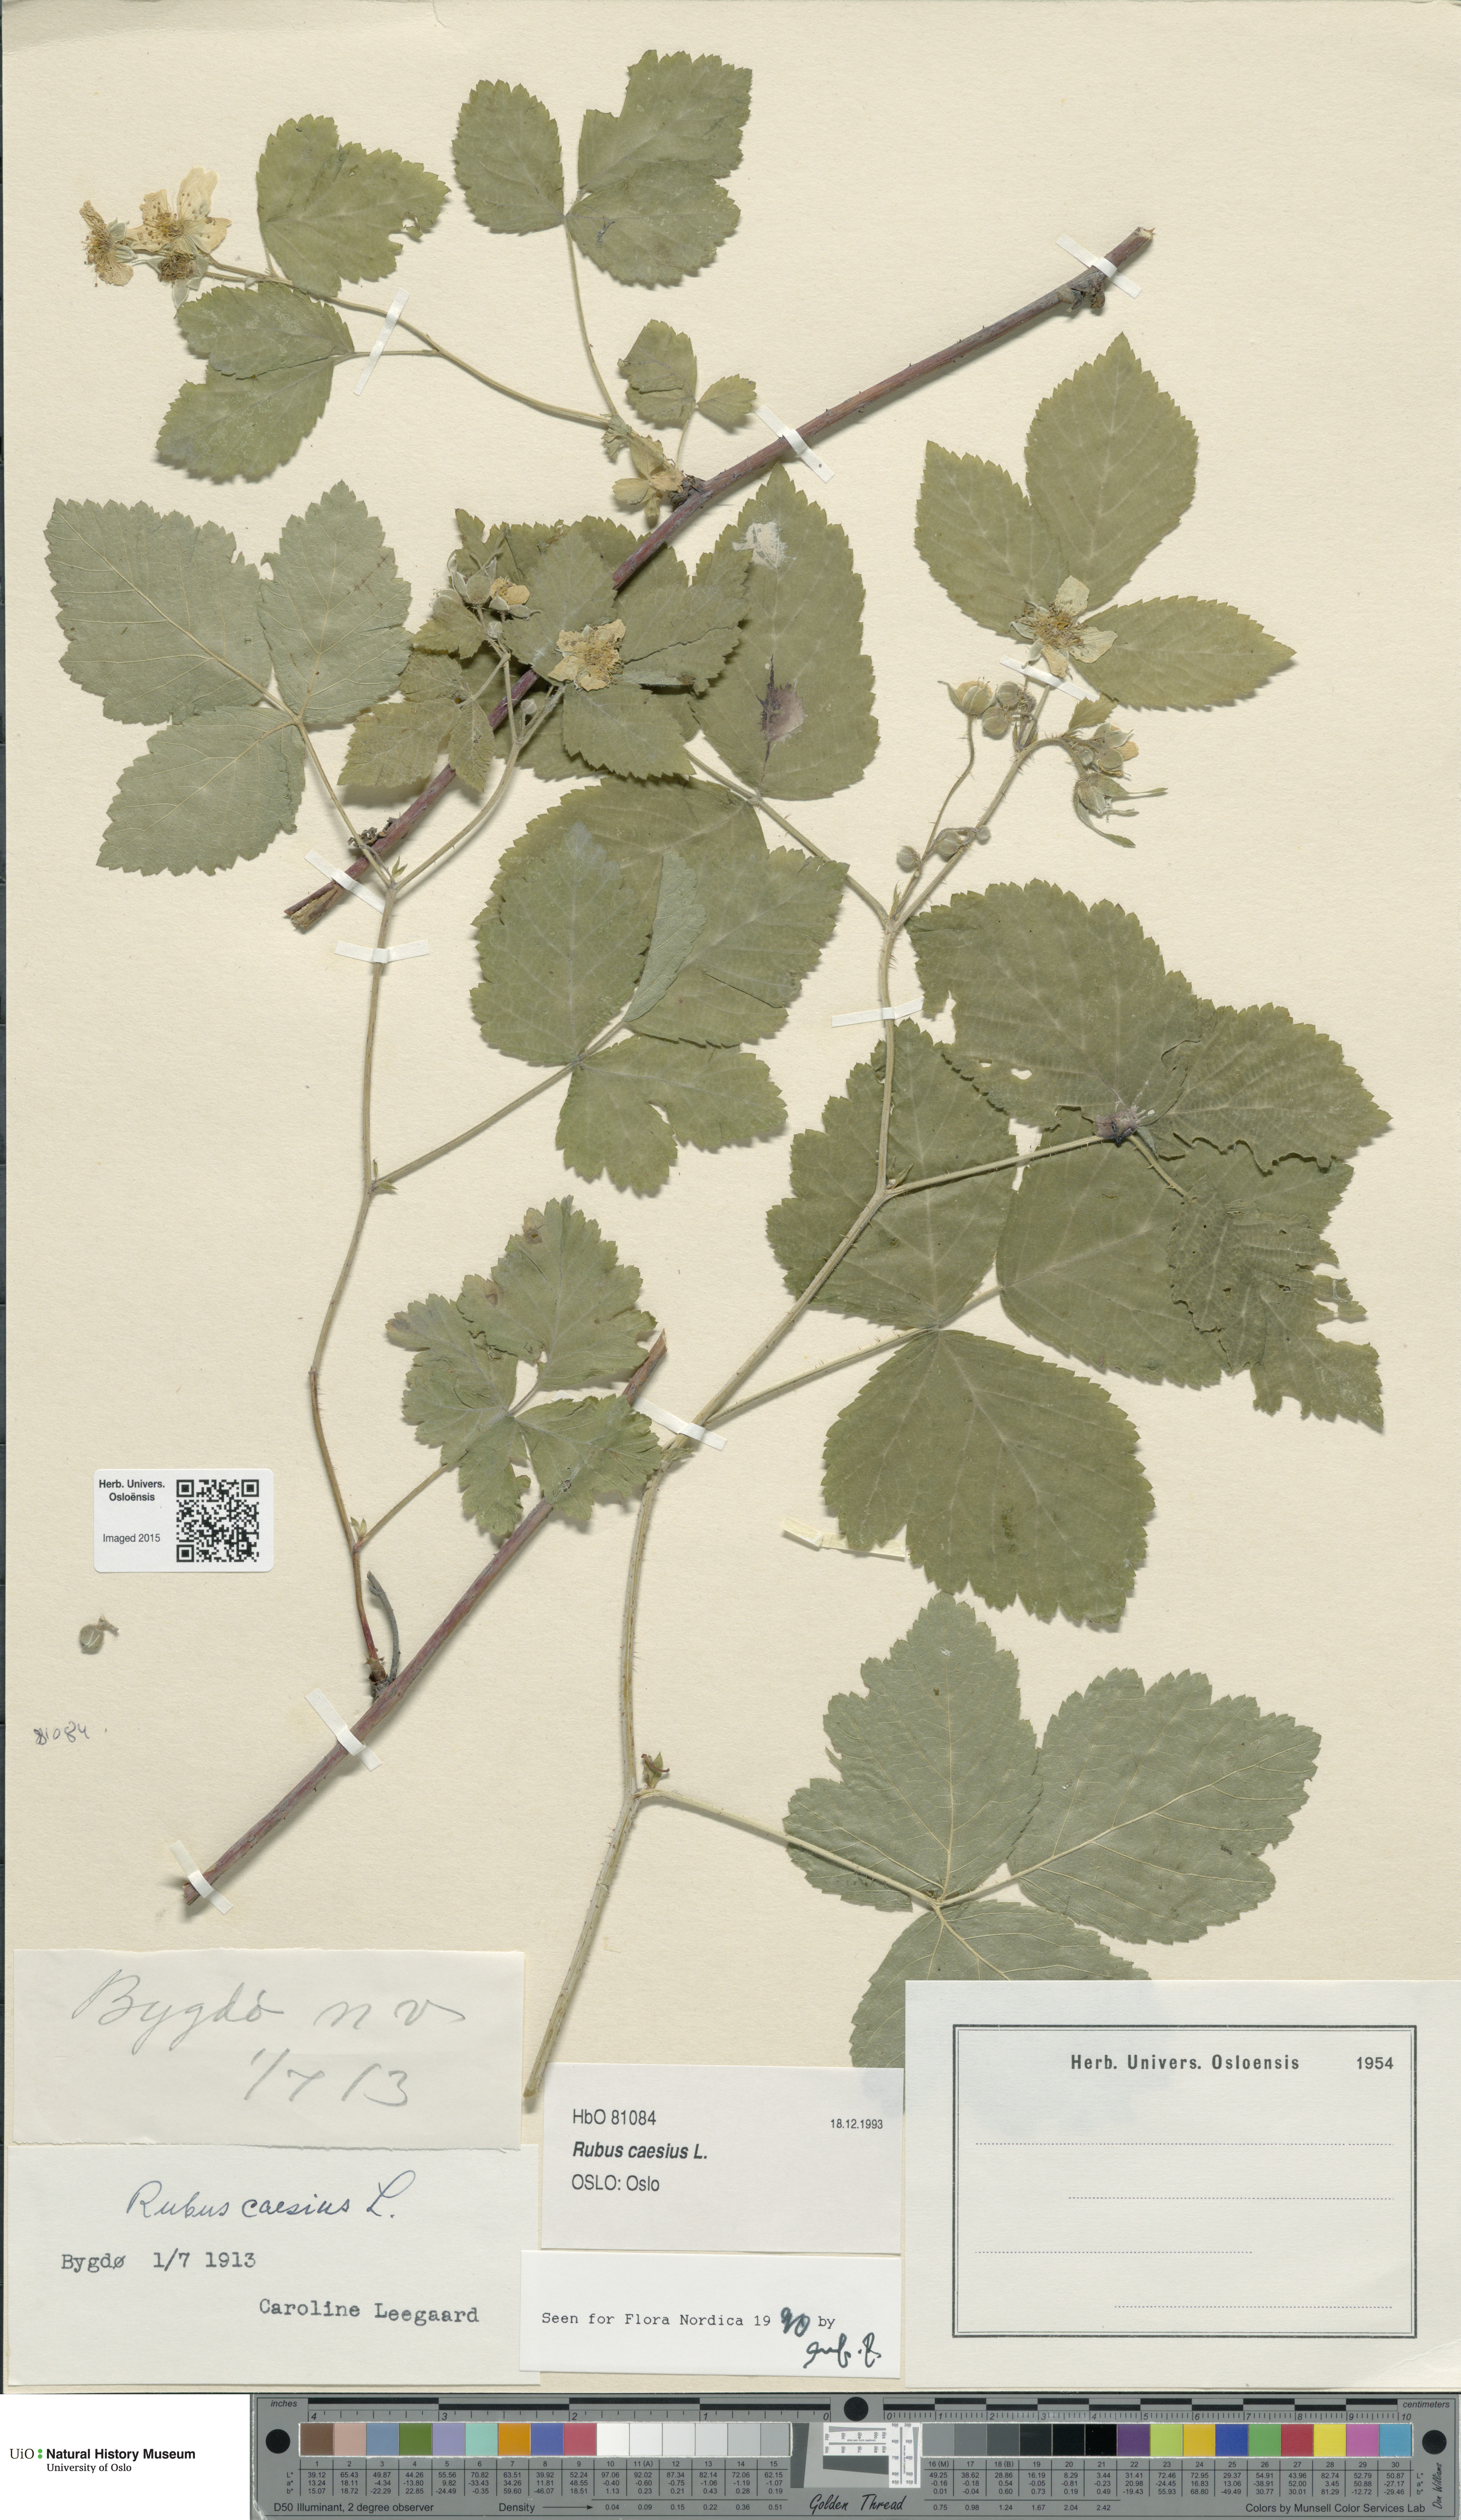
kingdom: Plantae
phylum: Tracheophyta
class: Magnoliopsida
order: Rosales
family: Rosaceae
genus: Rubus
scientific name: Rubus caesius
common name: Dewberry
